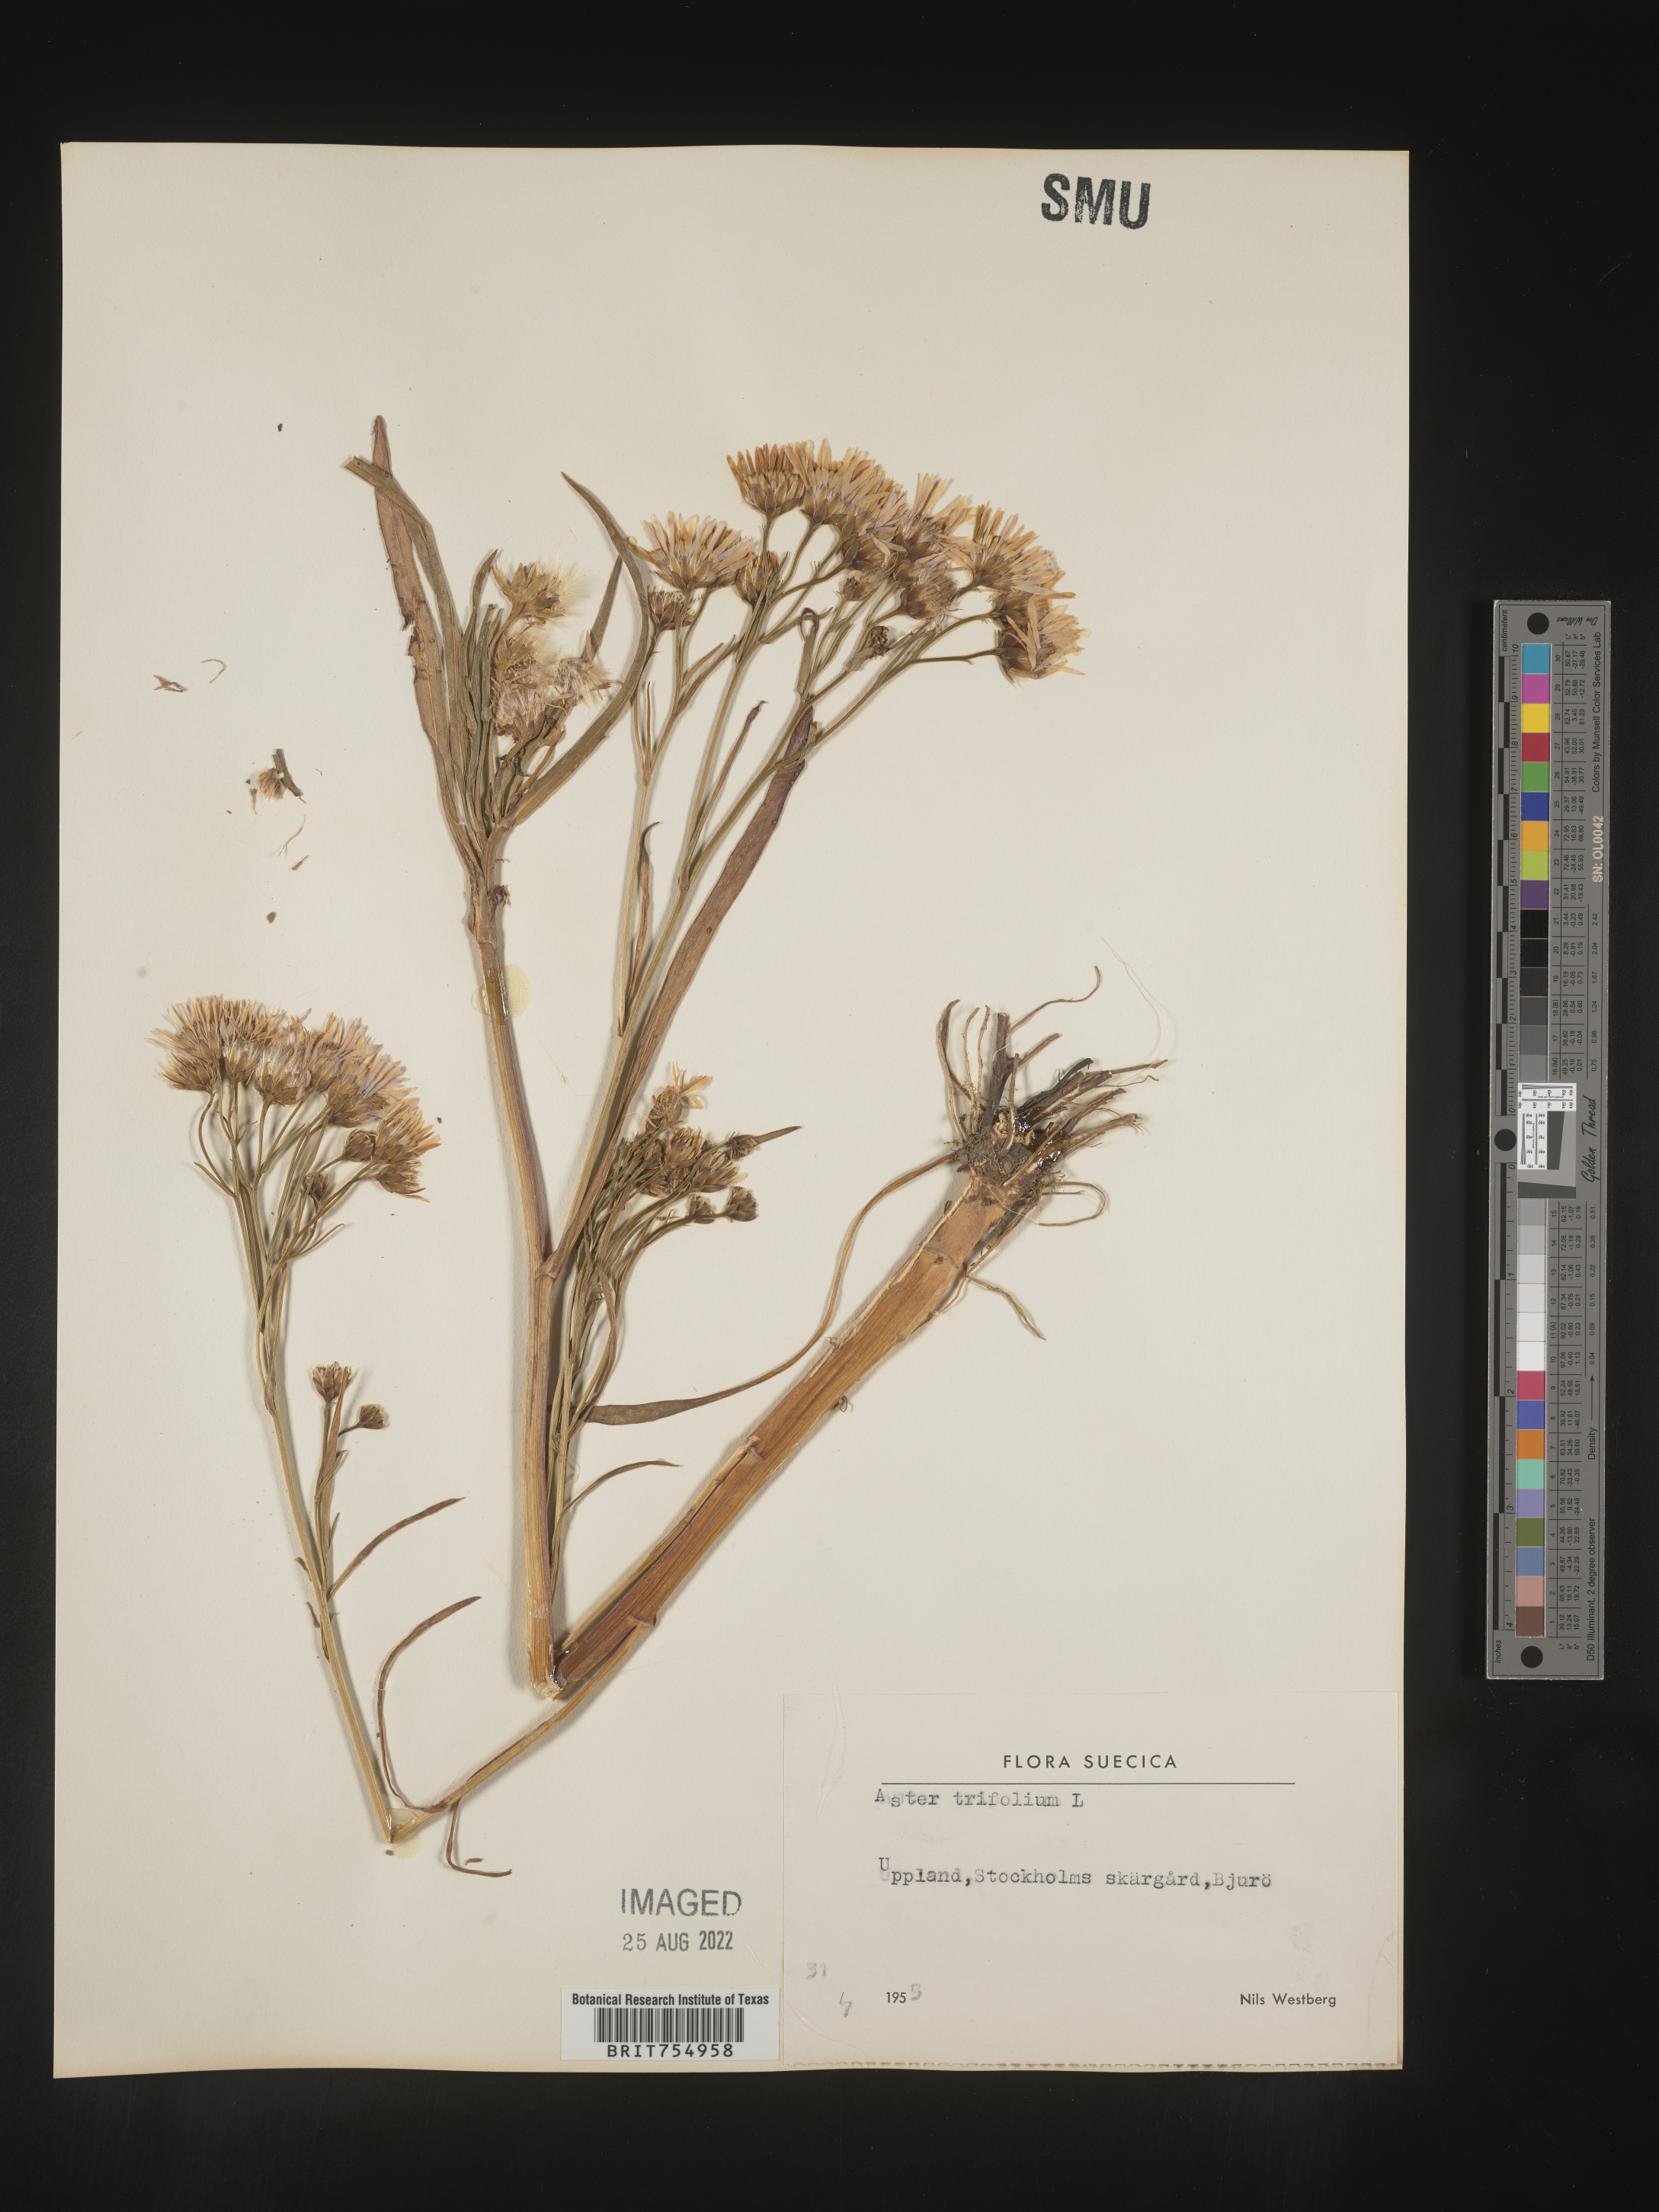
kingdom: Plantae
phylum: Tracheophyta
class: Magnoliopsida
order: Asterales
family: Asteraceae
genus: Symphyotrichum
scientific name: Symphyotrichum
